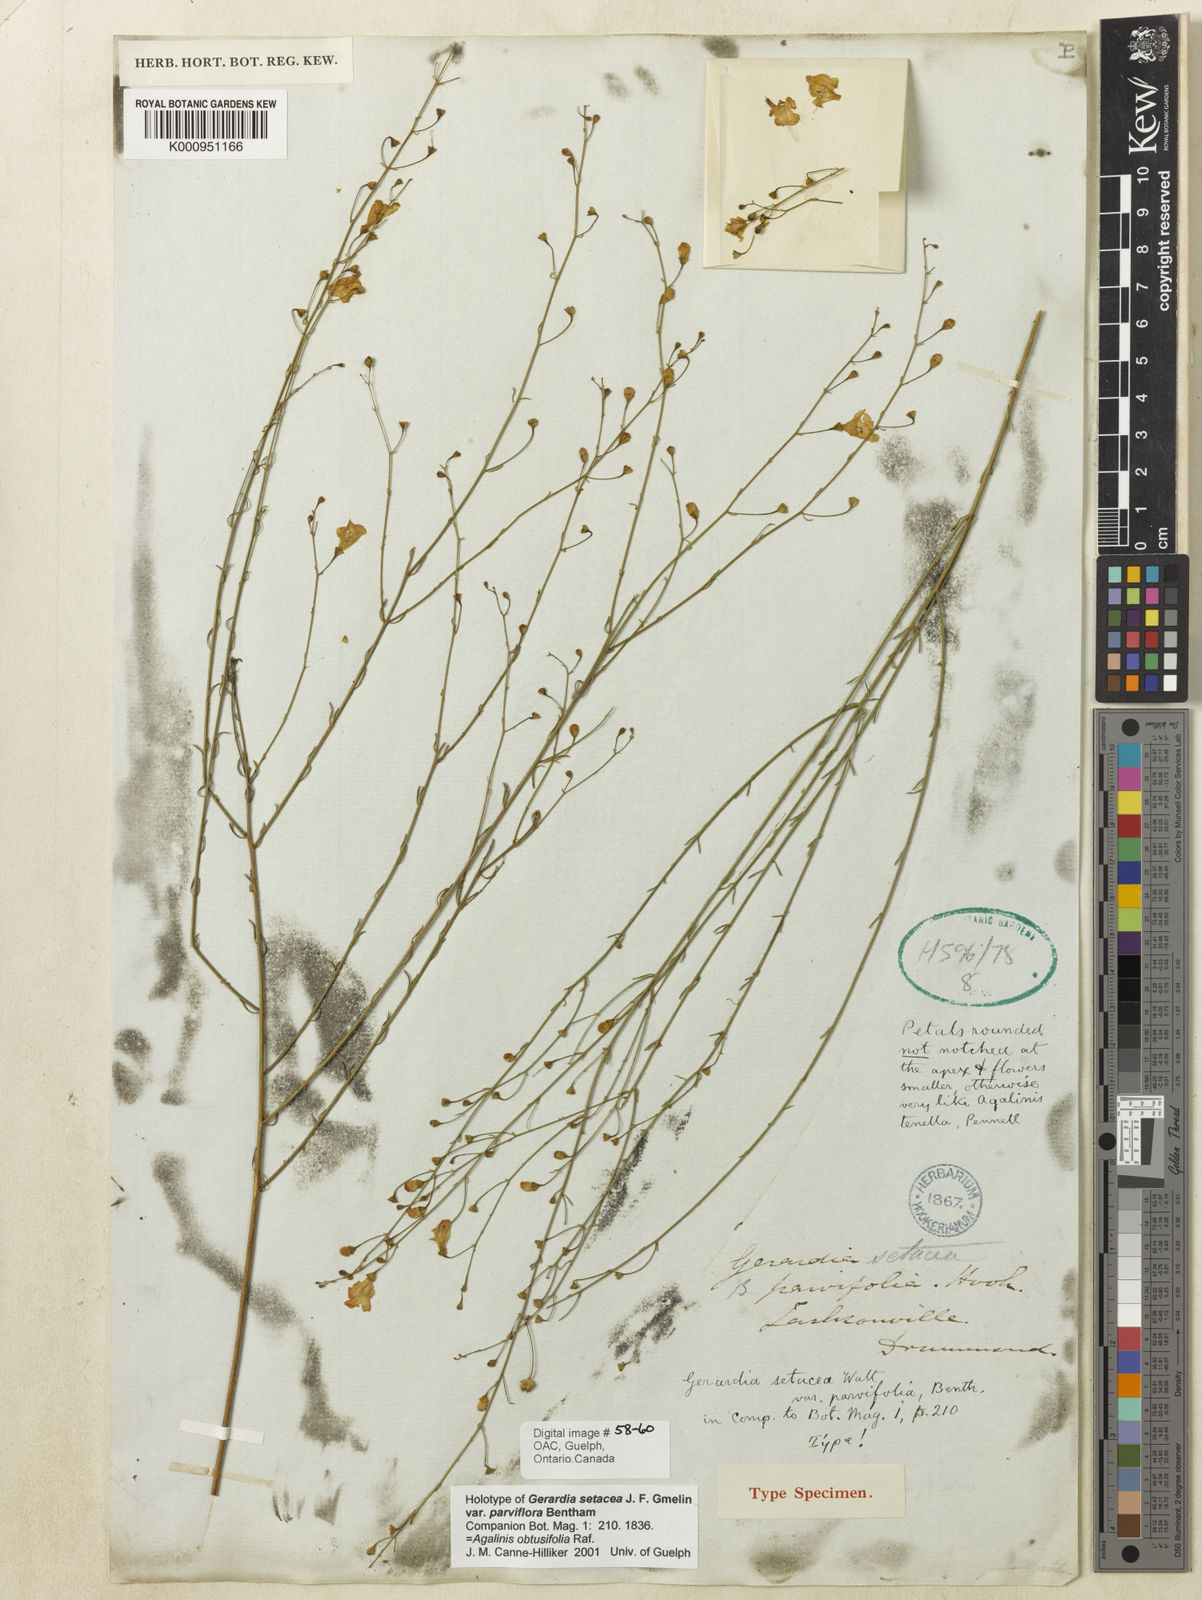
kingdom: Plantae
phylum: Tracheophyta
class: Magnoliopsida
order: Lamiales
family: Orobanchaceae
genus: Agalinis
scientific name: Agalinis obtusifolia
